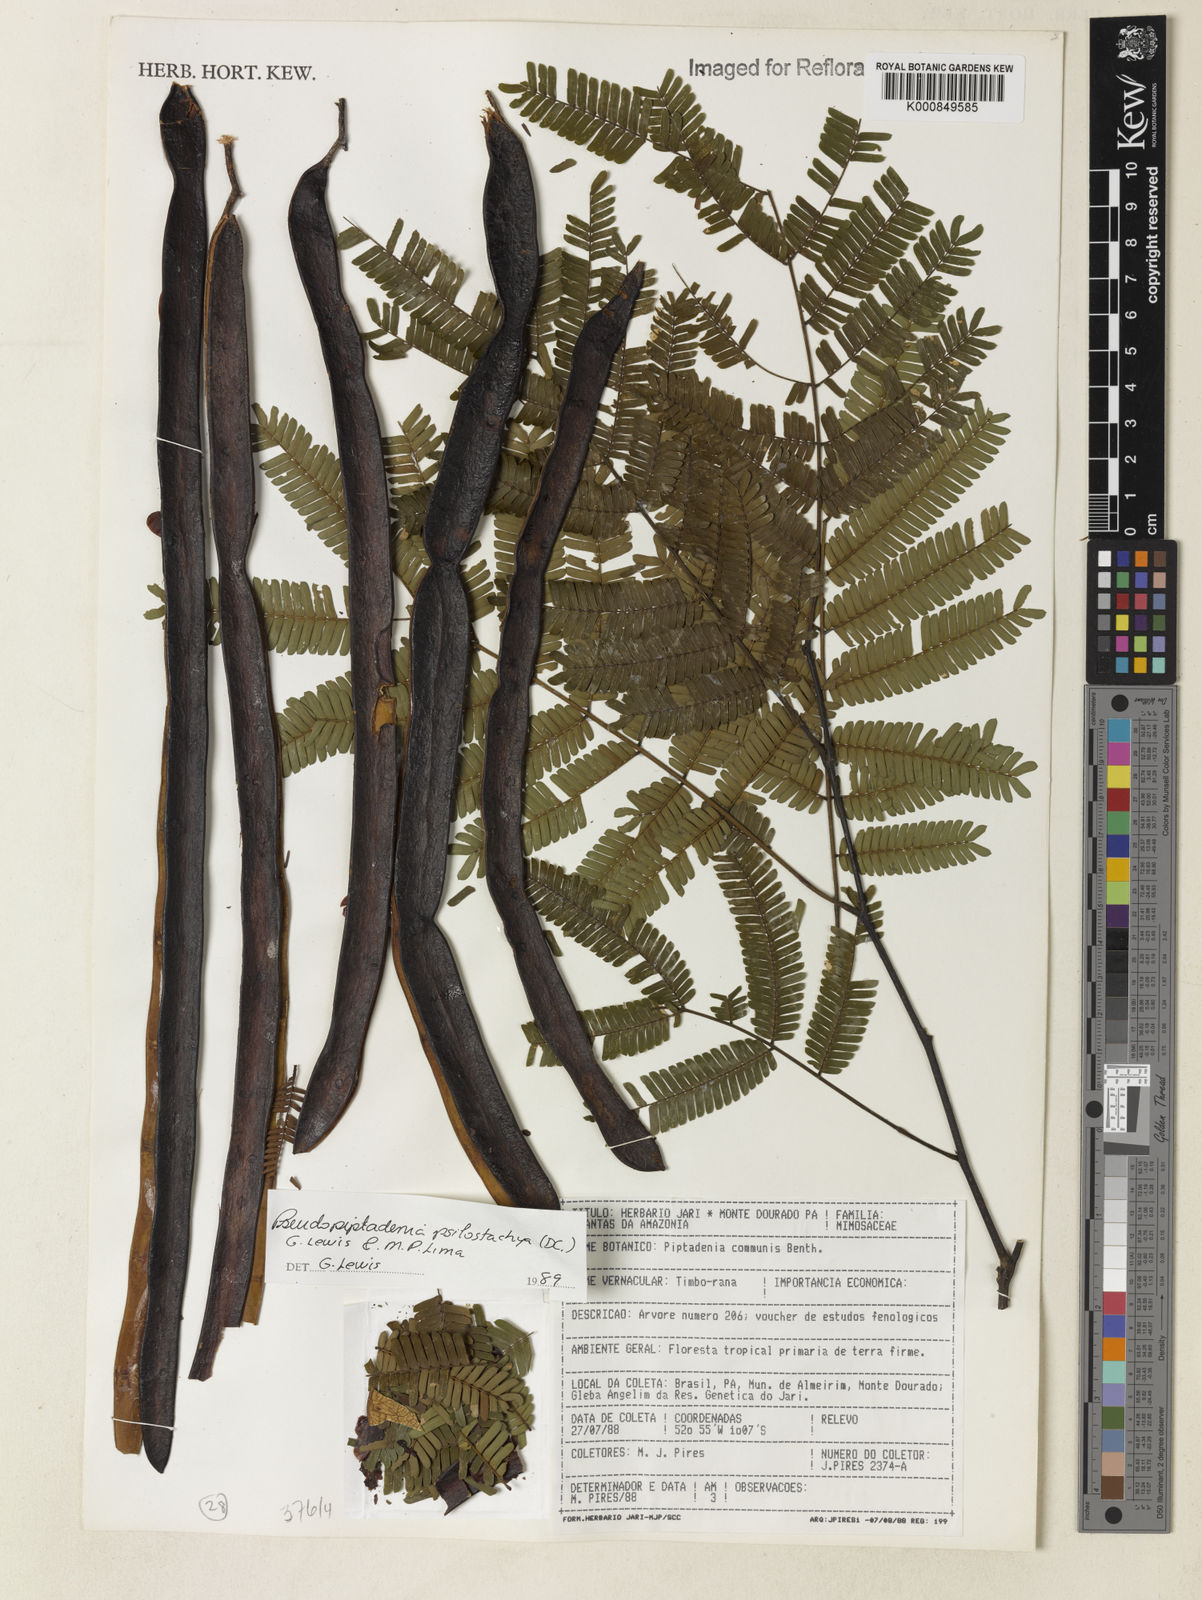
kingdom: Plantae
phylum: Tracheophyta
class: Magnoliopsida
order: Fabales
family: Fabaceae
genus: Pseudopiptadenia
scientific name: Pseudopiptadenia psilostachya
